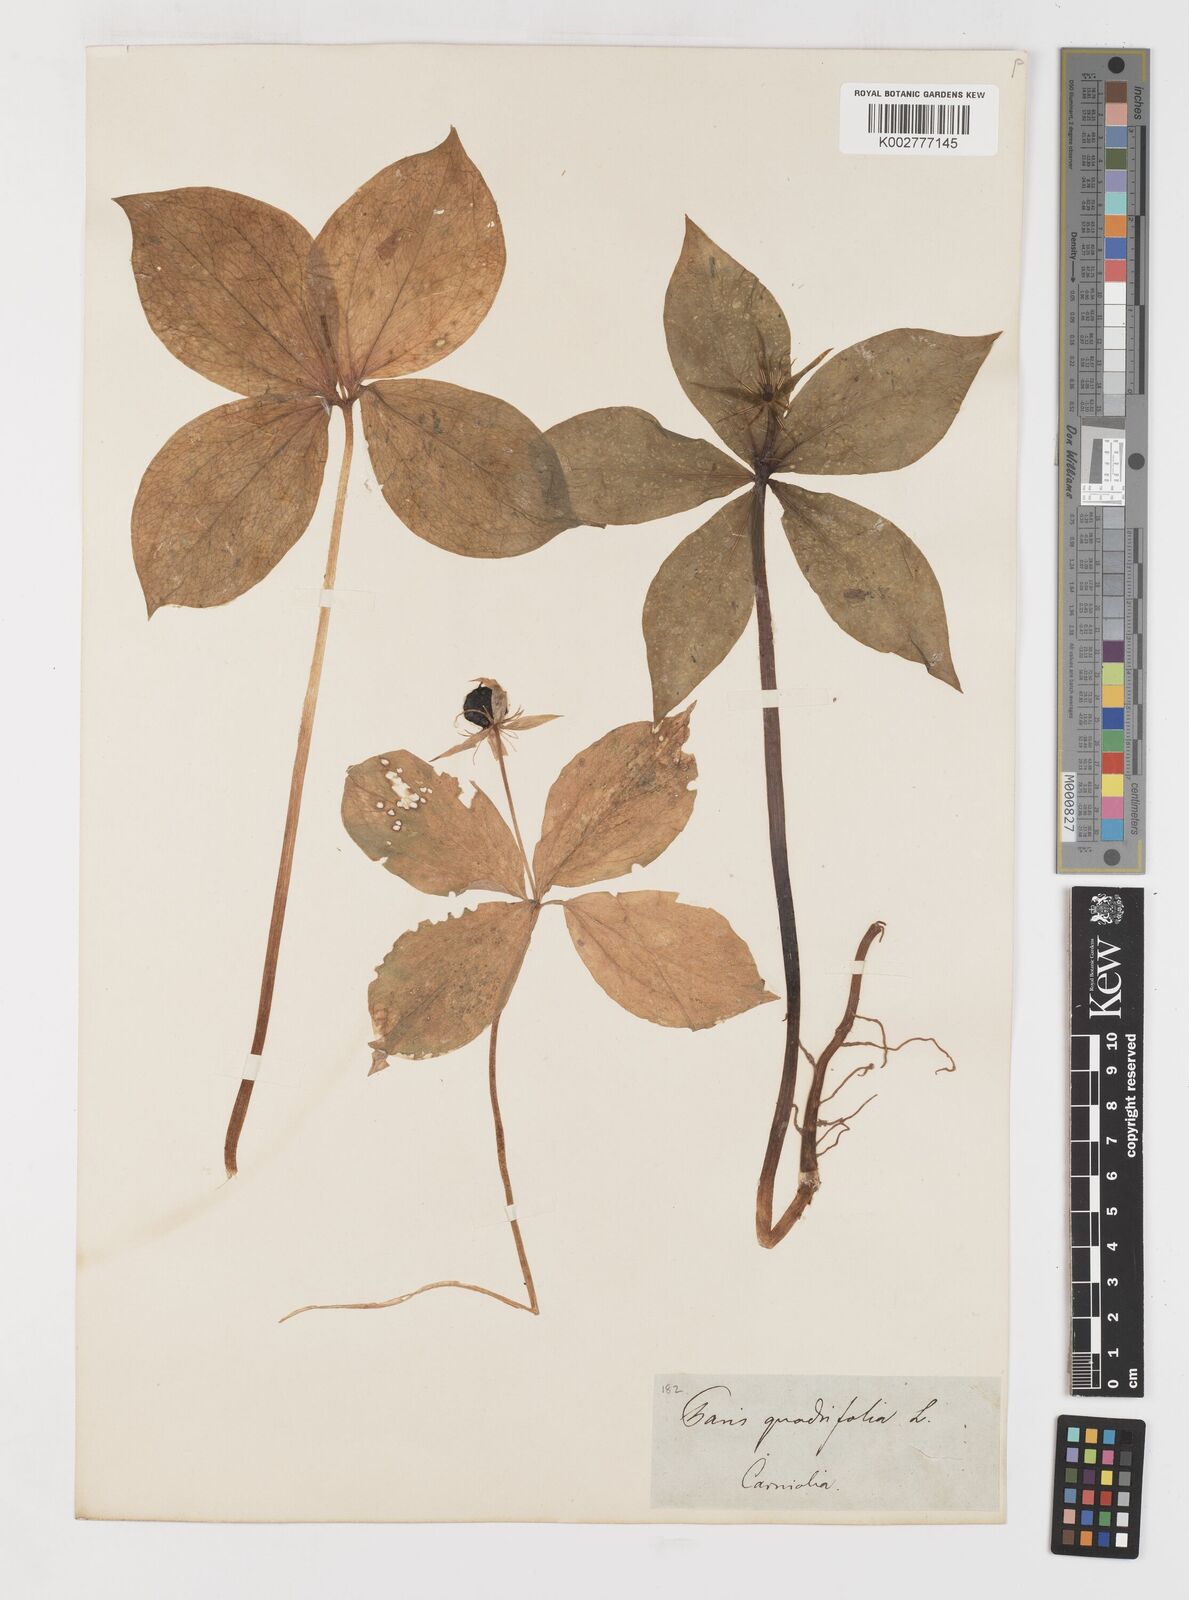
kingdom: Plantae
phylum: Tracheophyta
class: Liliopsida
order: Liliales
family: Melanthiaceae
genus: Paris
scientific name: Paris quadrifolia
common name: Herb-paris
